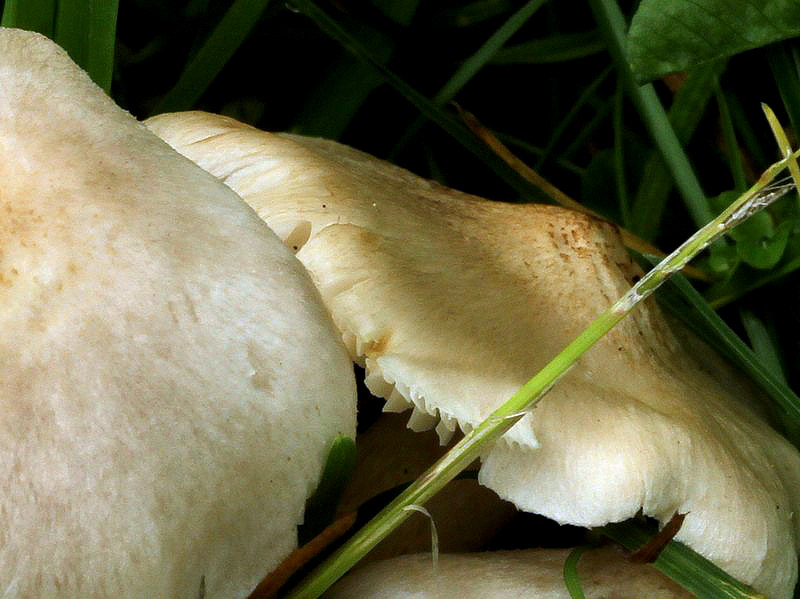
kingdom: Fungi
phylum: Basidiomycota
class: Agaricomycetes
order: Agaricales
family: Tricholomataceae
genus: Tricholoma
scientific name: Tricholoma argyraceum
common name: spids ridderhat
